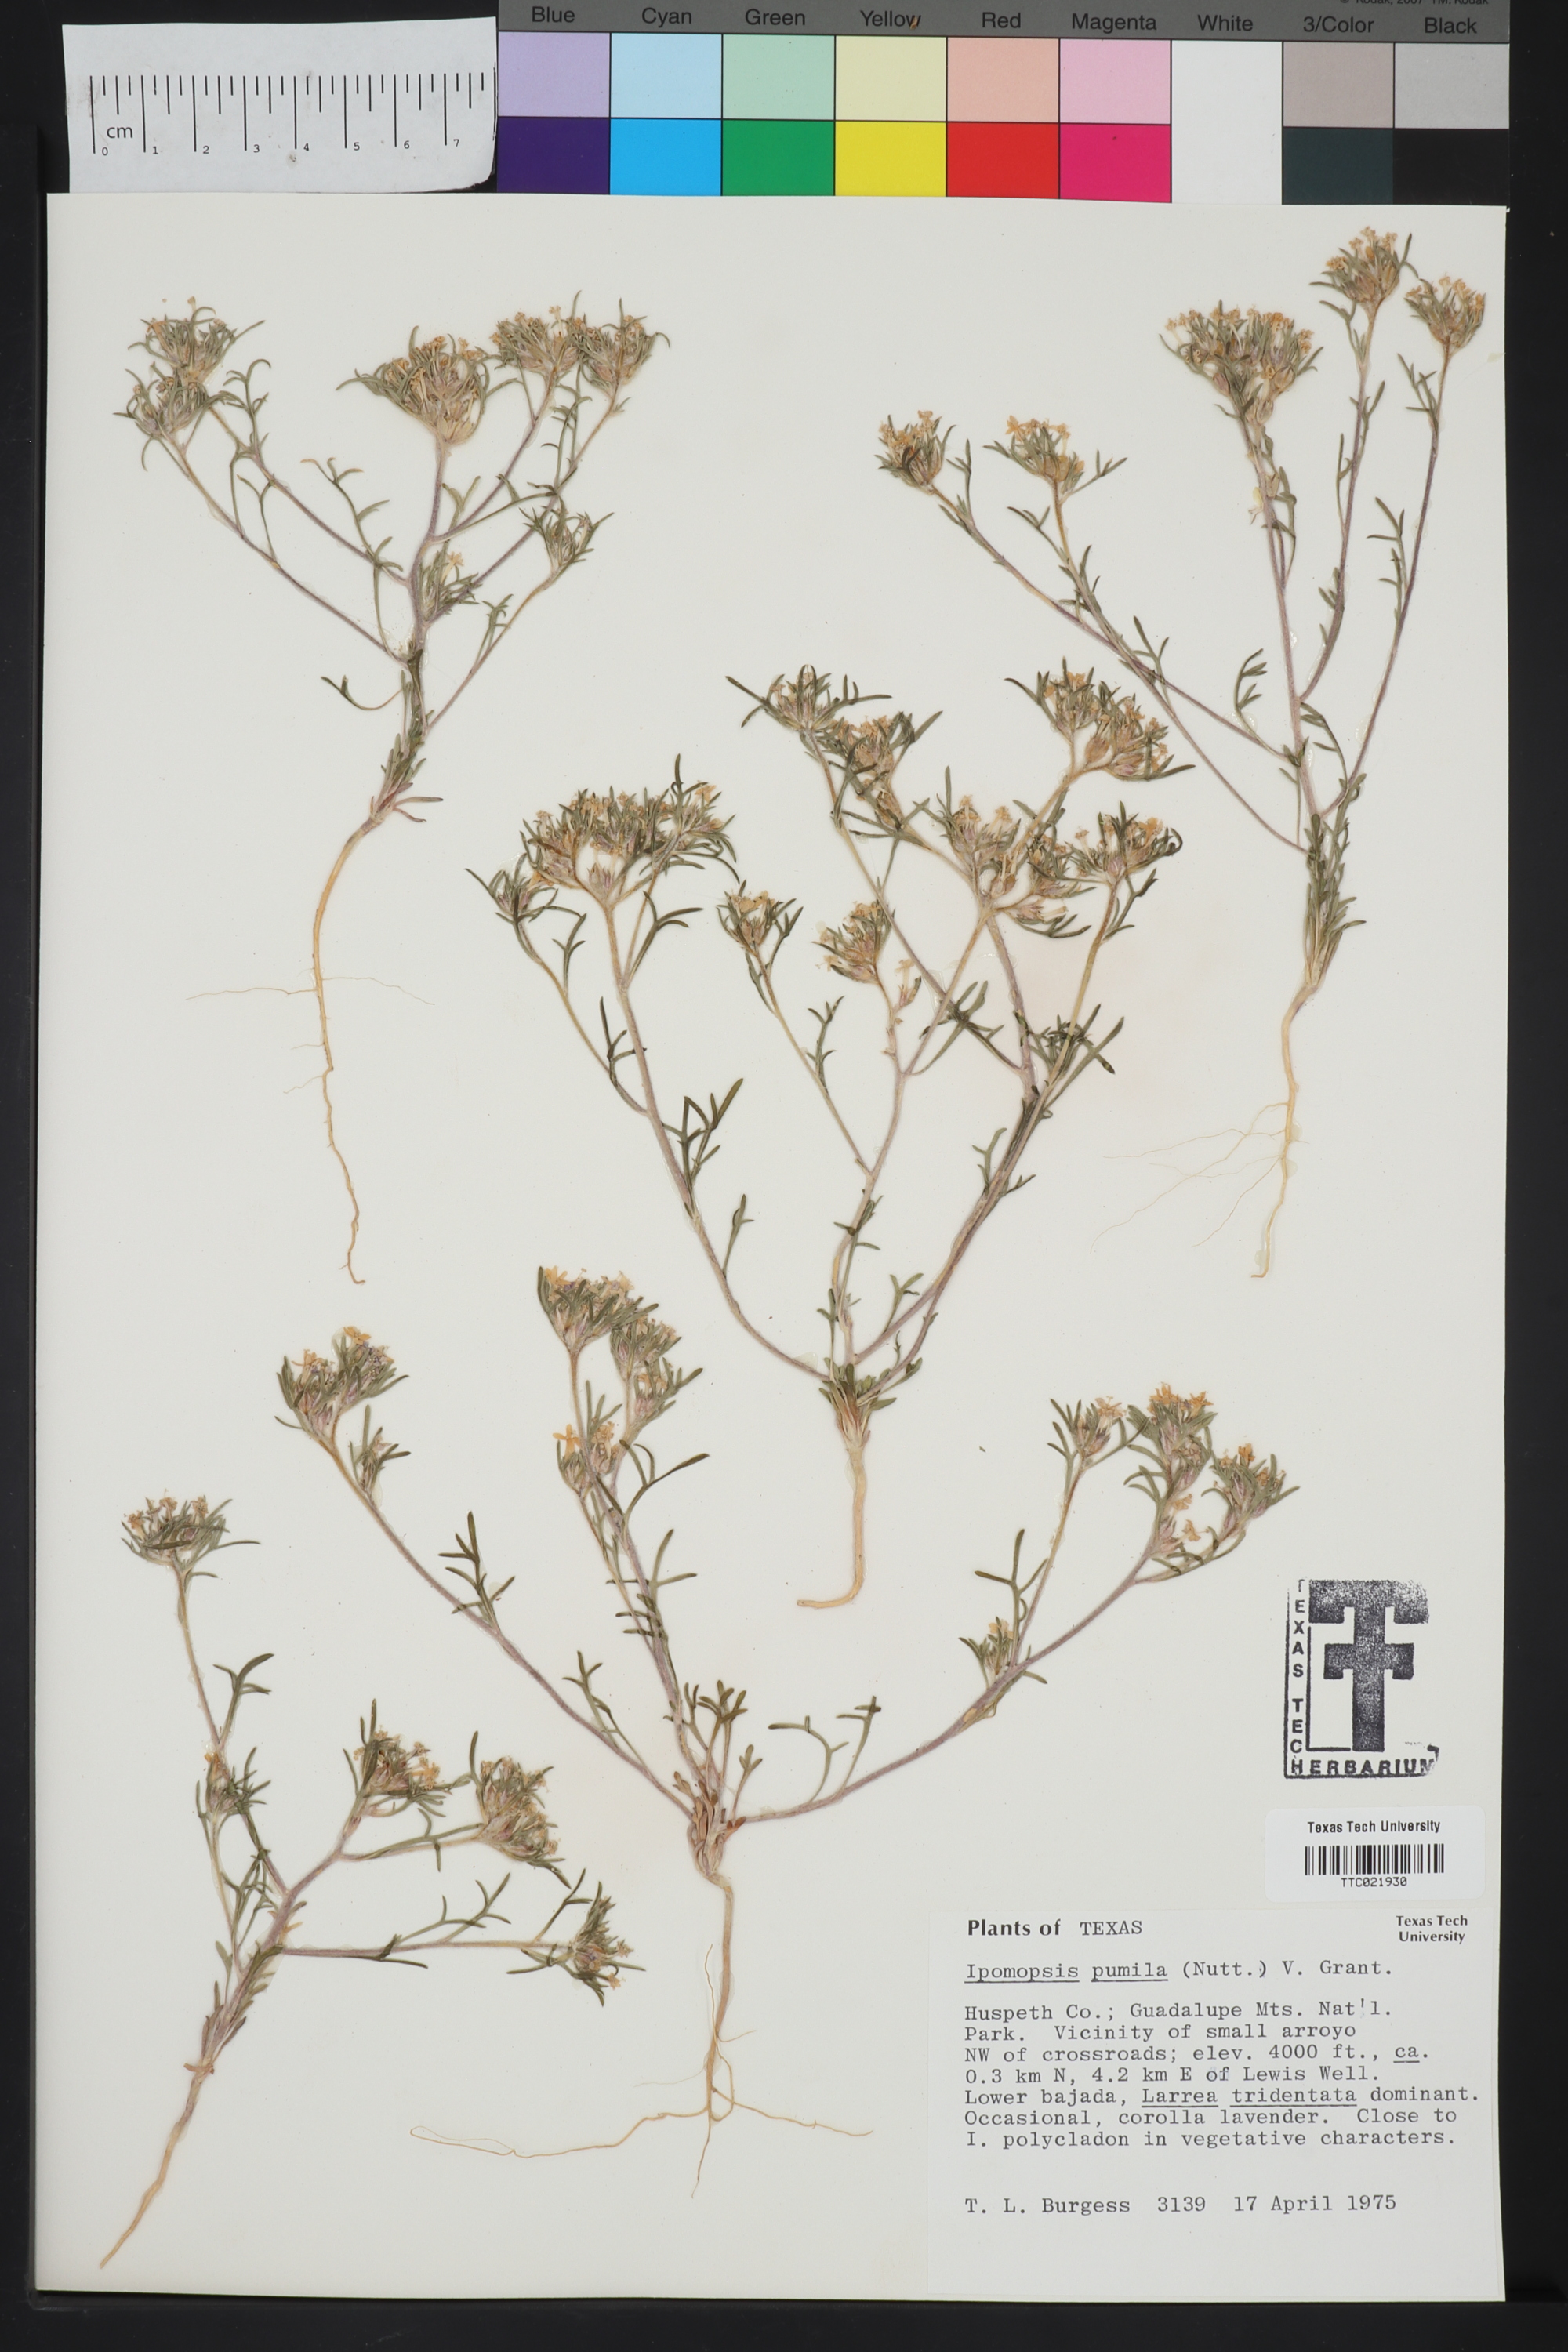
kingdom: Plantae
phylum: Tracheophyta
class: Magnoliopsida
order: Ericales
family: Polemoniaceae
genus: Ipomopsis
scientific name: Ipomopsis pumila
